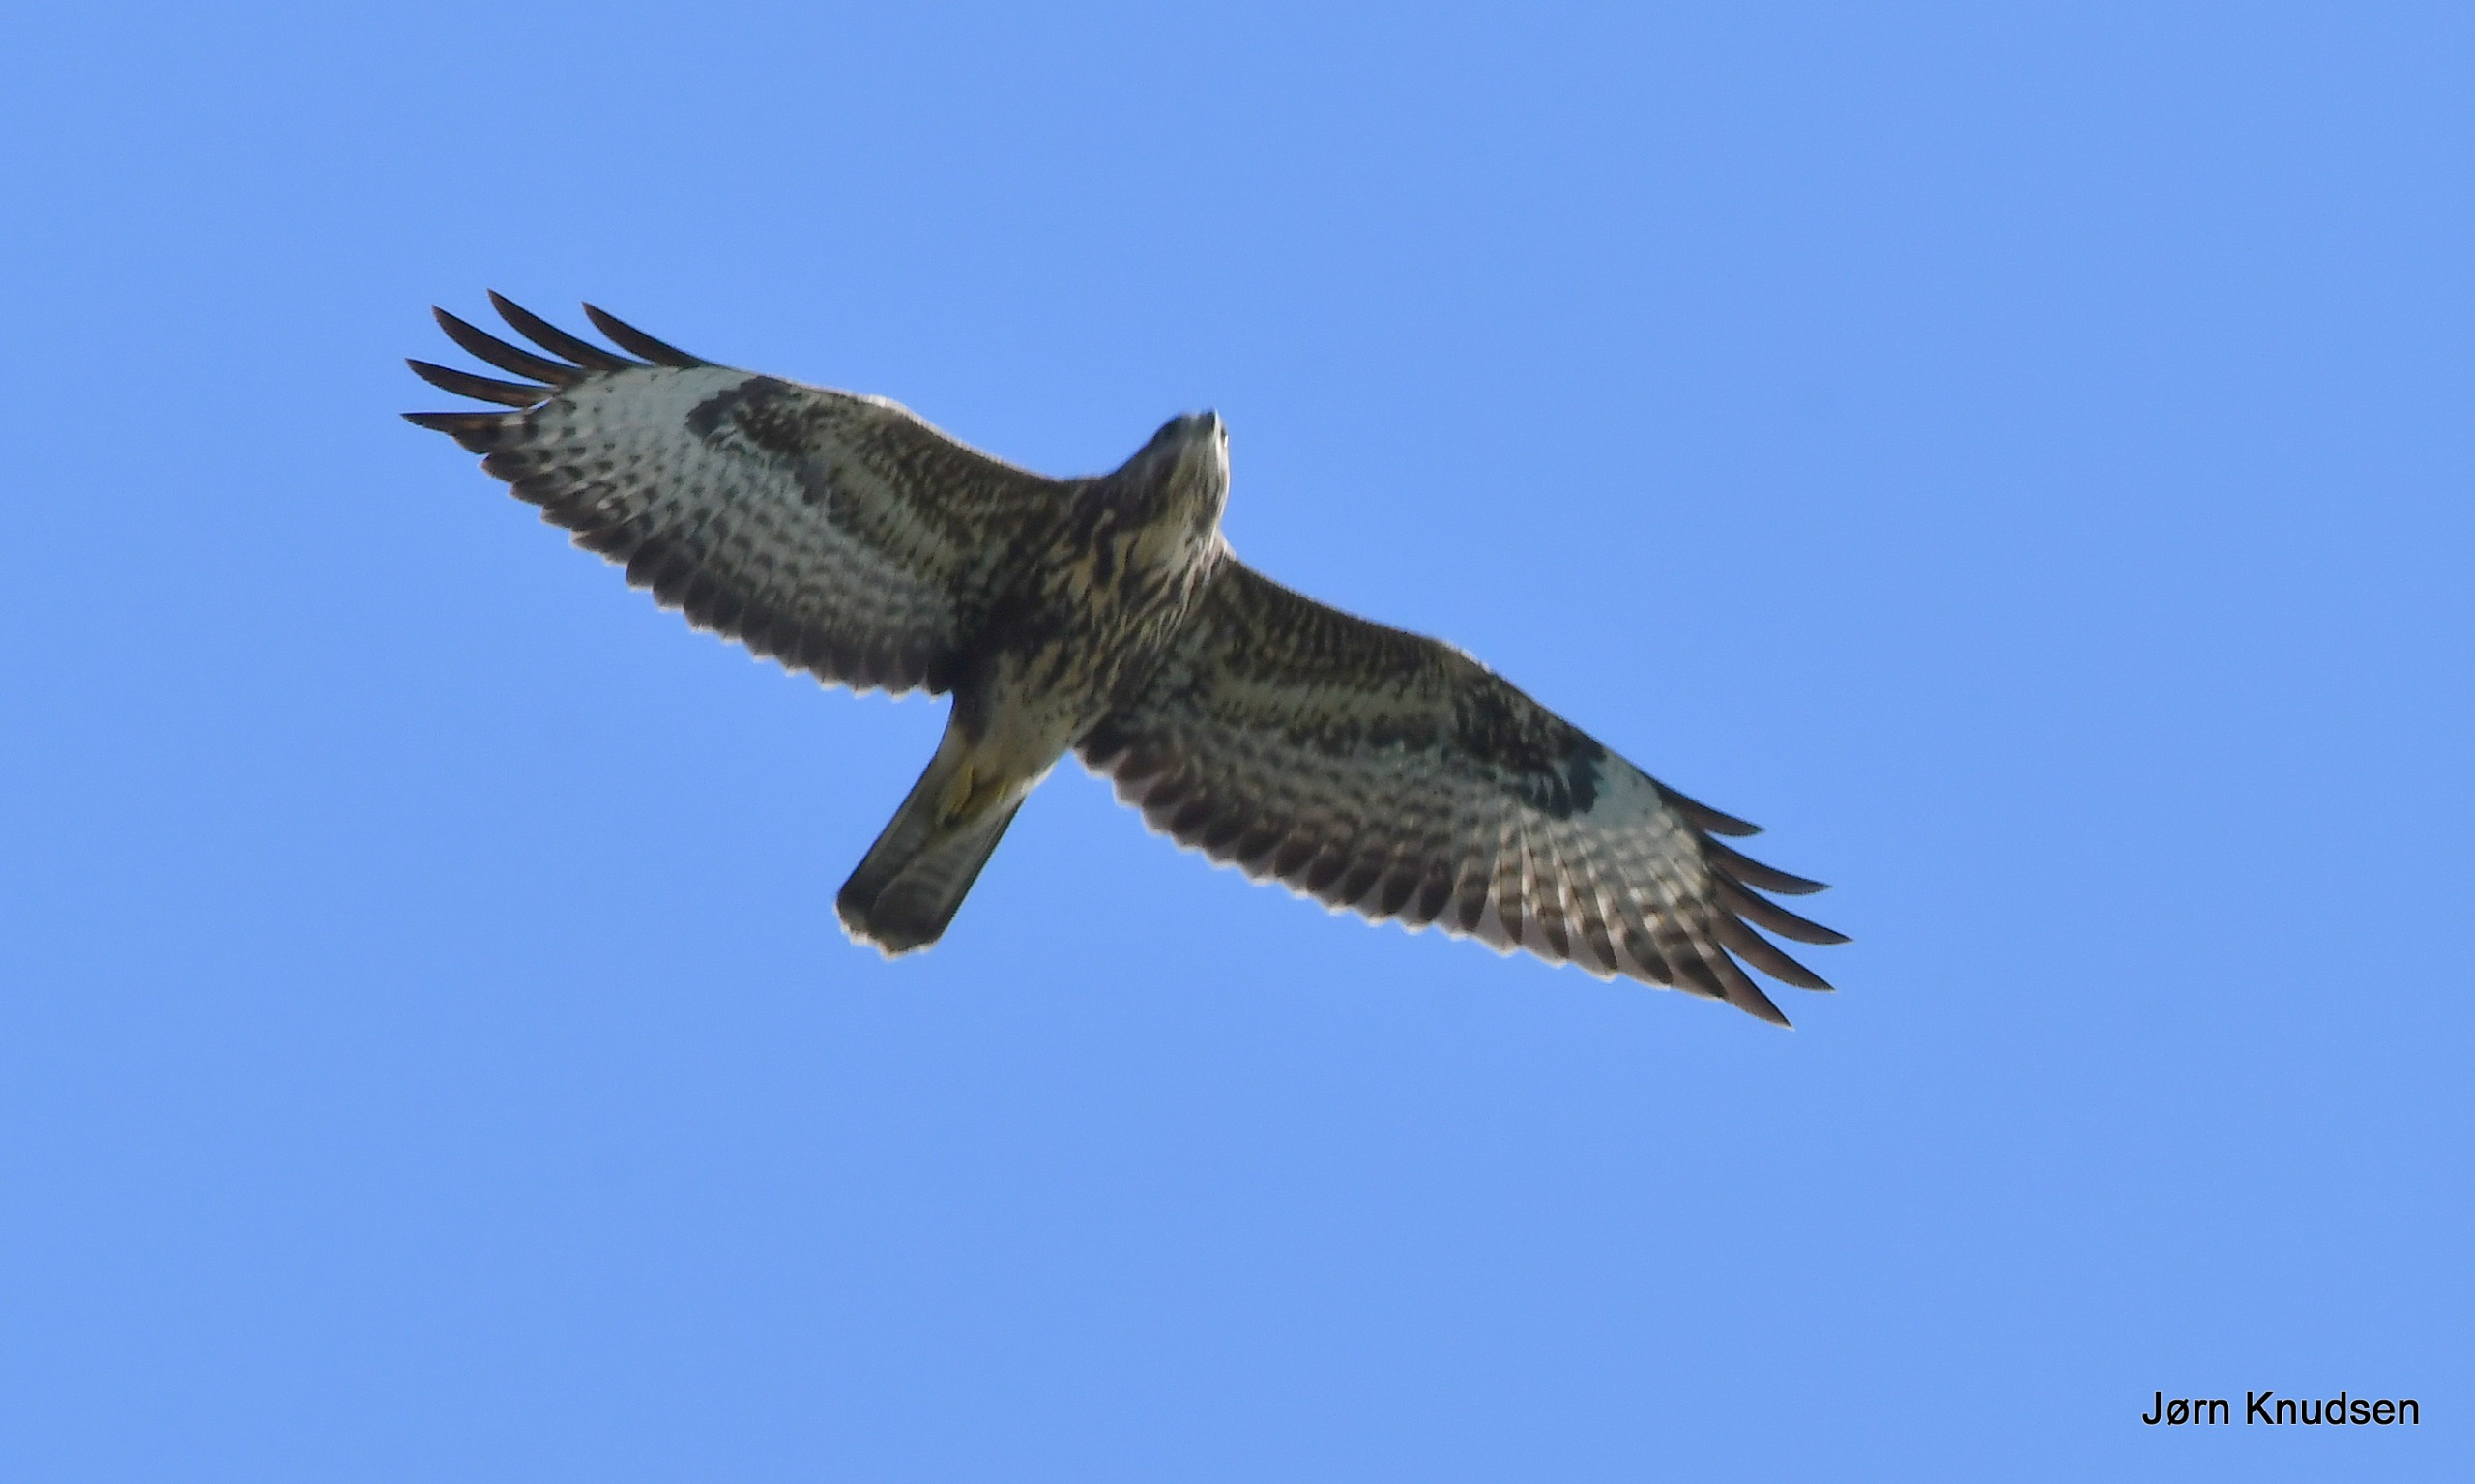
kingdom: Animalia
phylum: Chordata
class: Aves
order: Accipitriformes
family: Accipitridae
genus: Buteo
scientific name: Buteo buteo
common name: Musvåge
